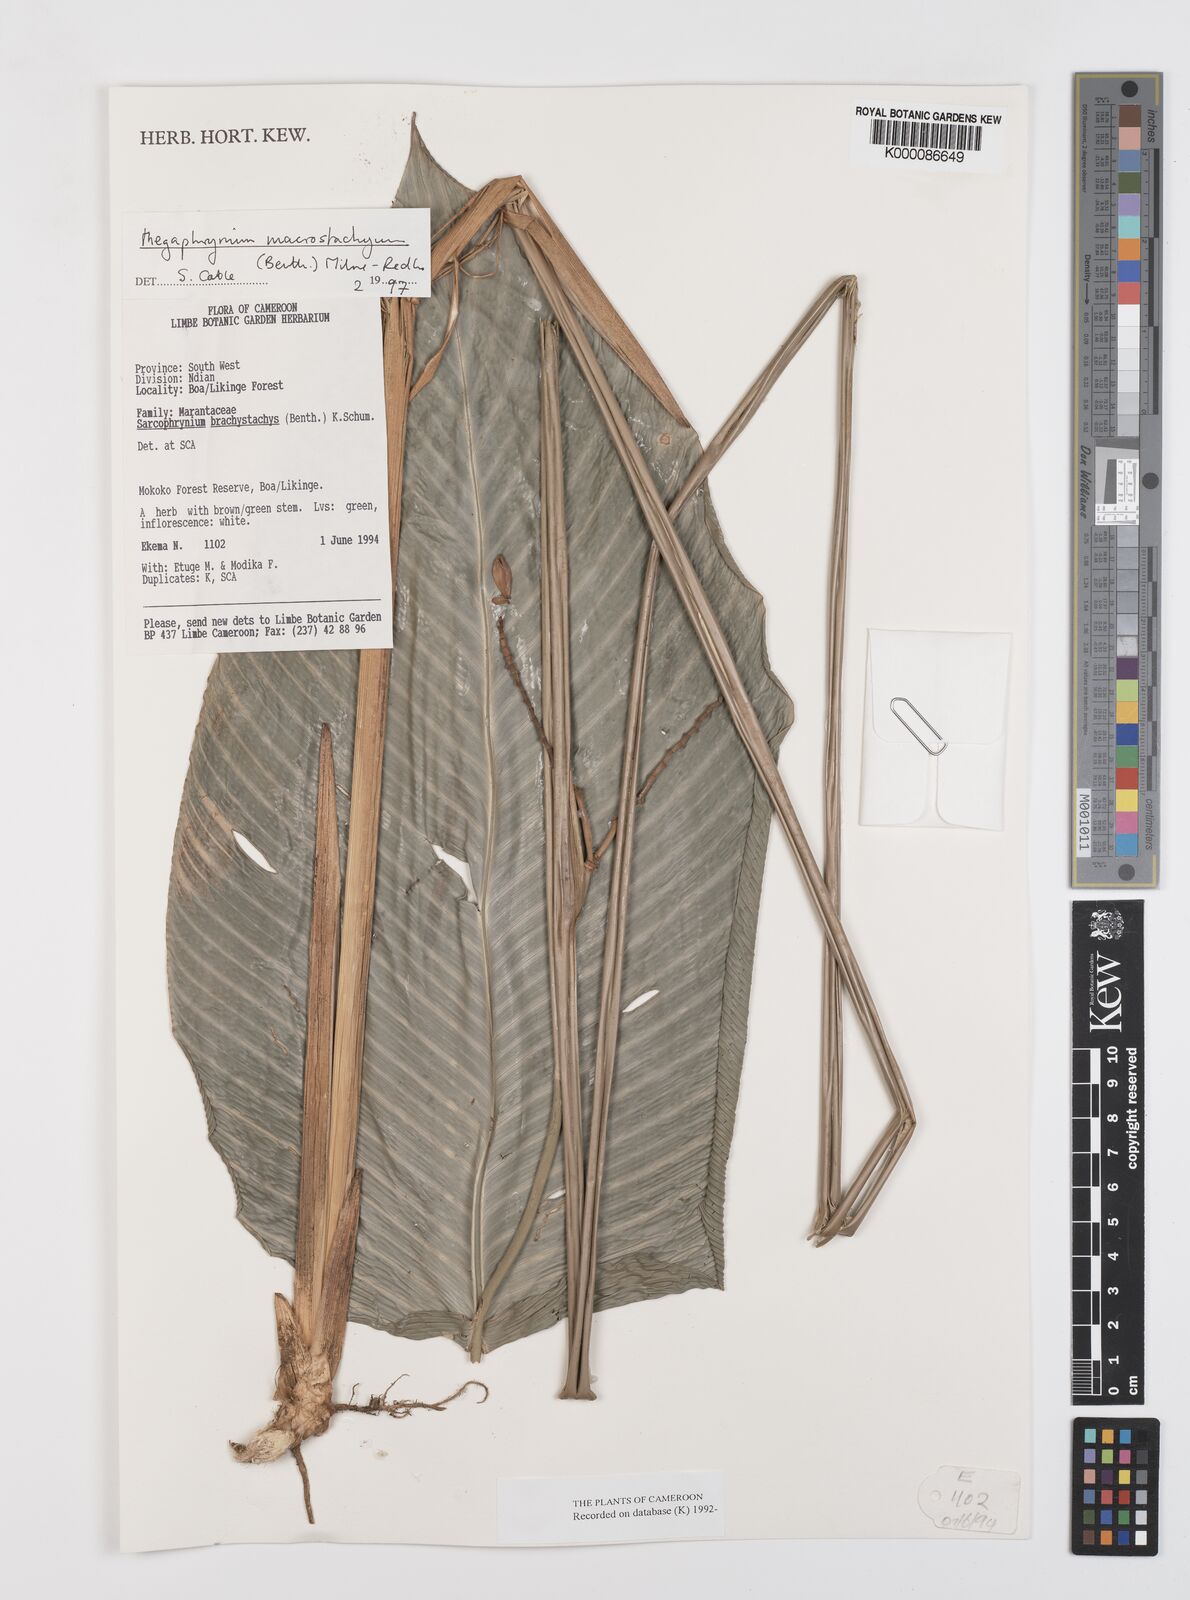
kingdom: Plantae
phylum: Tracheophyta
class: Liliopsida
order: Zingiberales
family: Marantaceae
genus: Megaphrynium
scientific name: Megaphrynium macrostachyum
